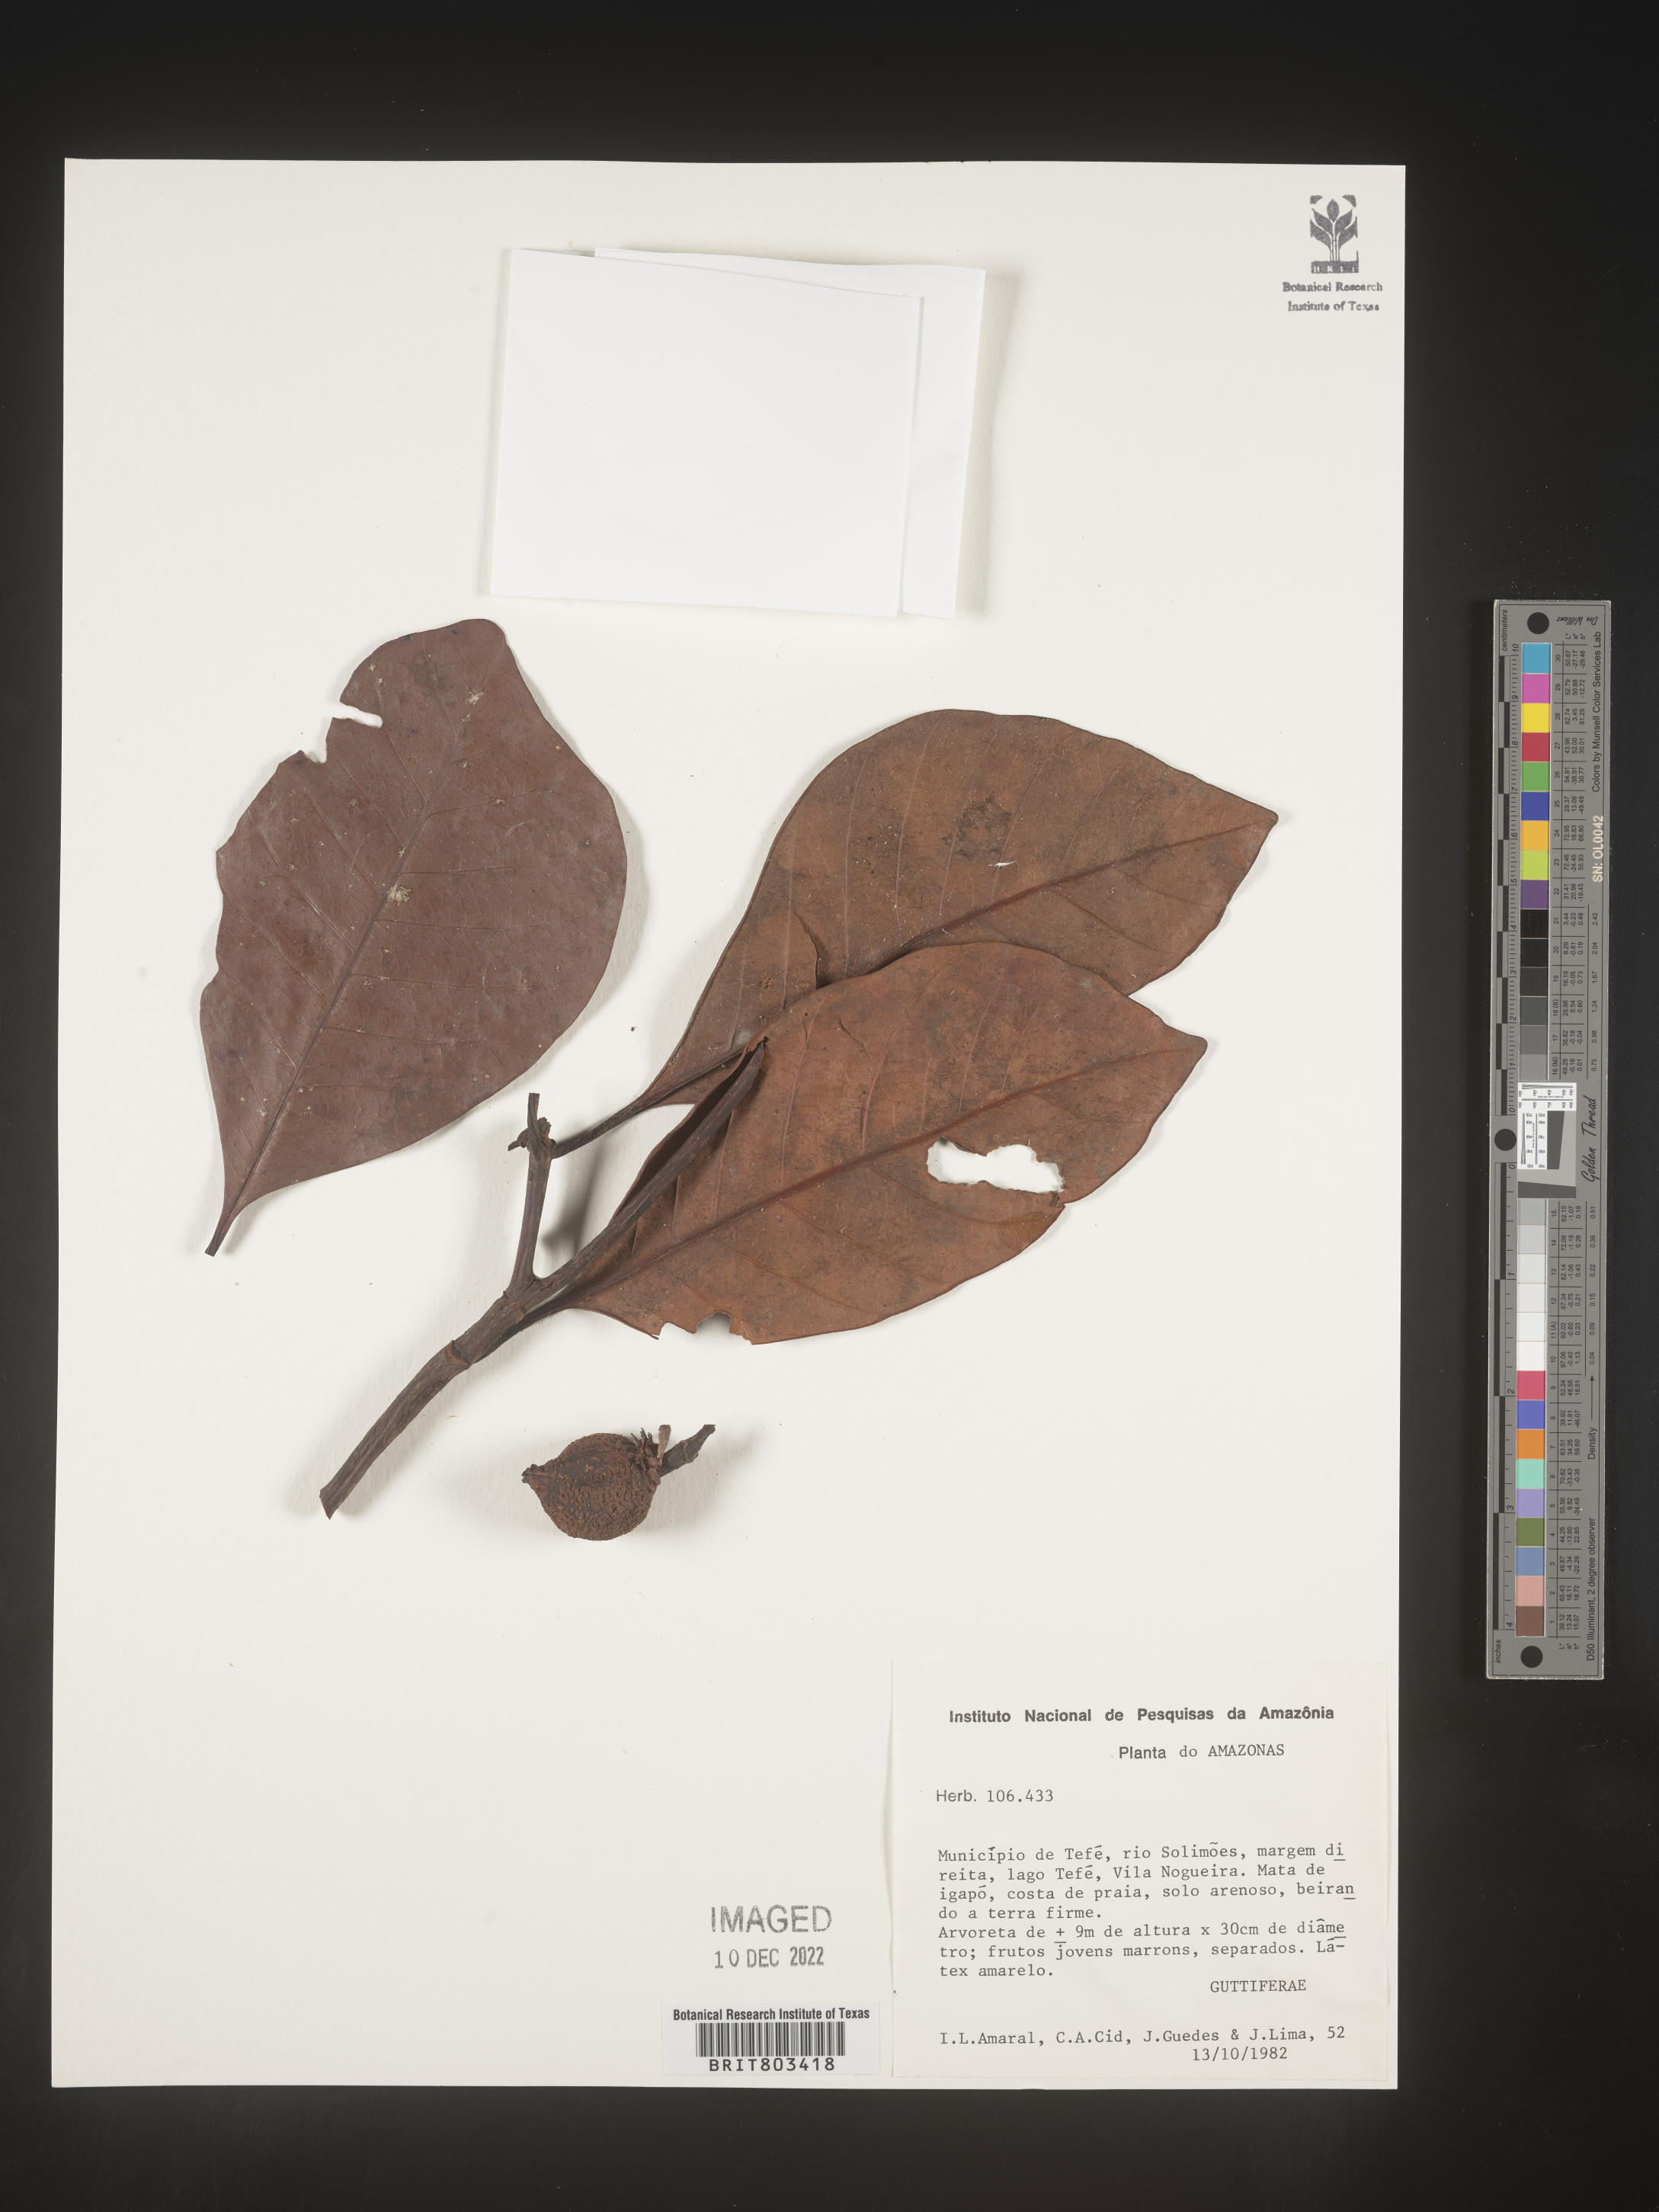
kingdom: Plantae
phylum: Tracheophyta
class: Magnoliopsida
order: Malpighiales
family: Clusiaceae
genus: Tovomita
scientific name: Tovomita
